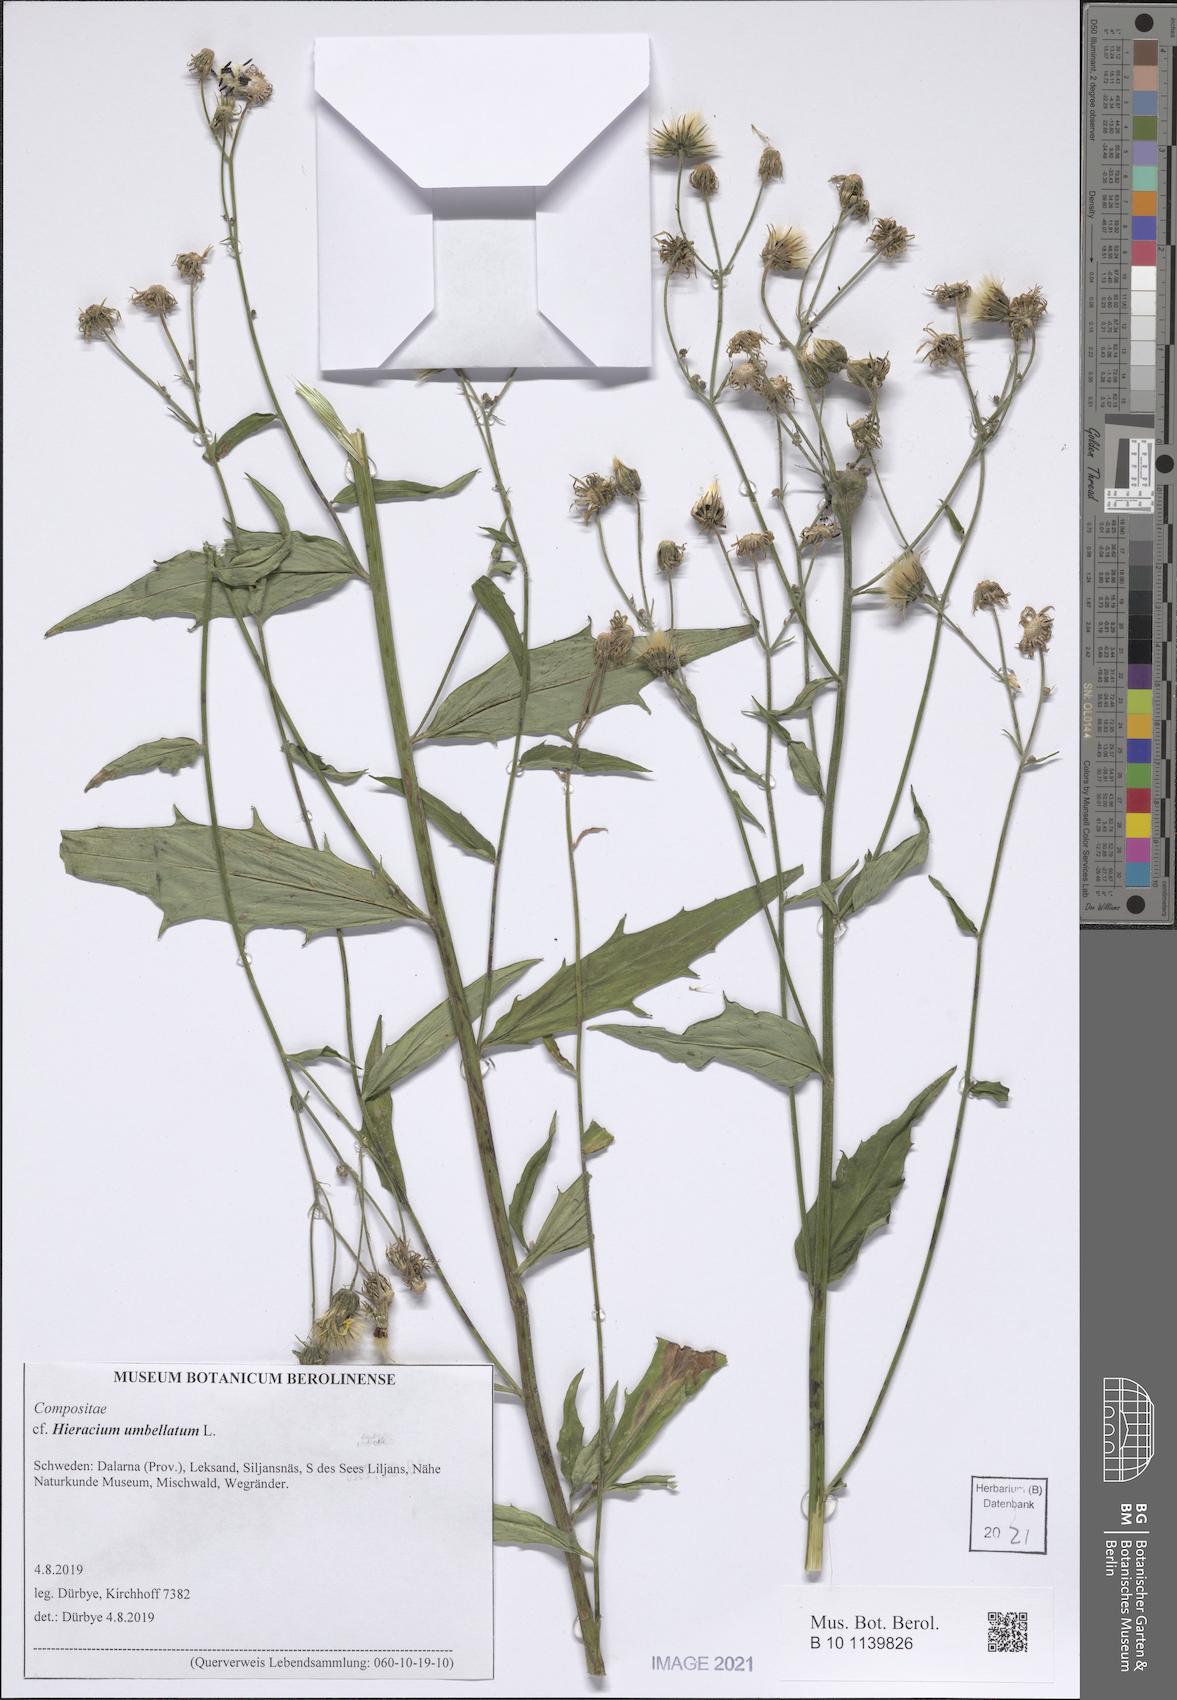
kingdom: Plantae
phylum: Tracheophyta
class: Magnoliopsida
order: Asterales
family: Asteraceae
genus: Hieracium
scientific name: Hieracium umbellatum
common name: Northern hawkweed
